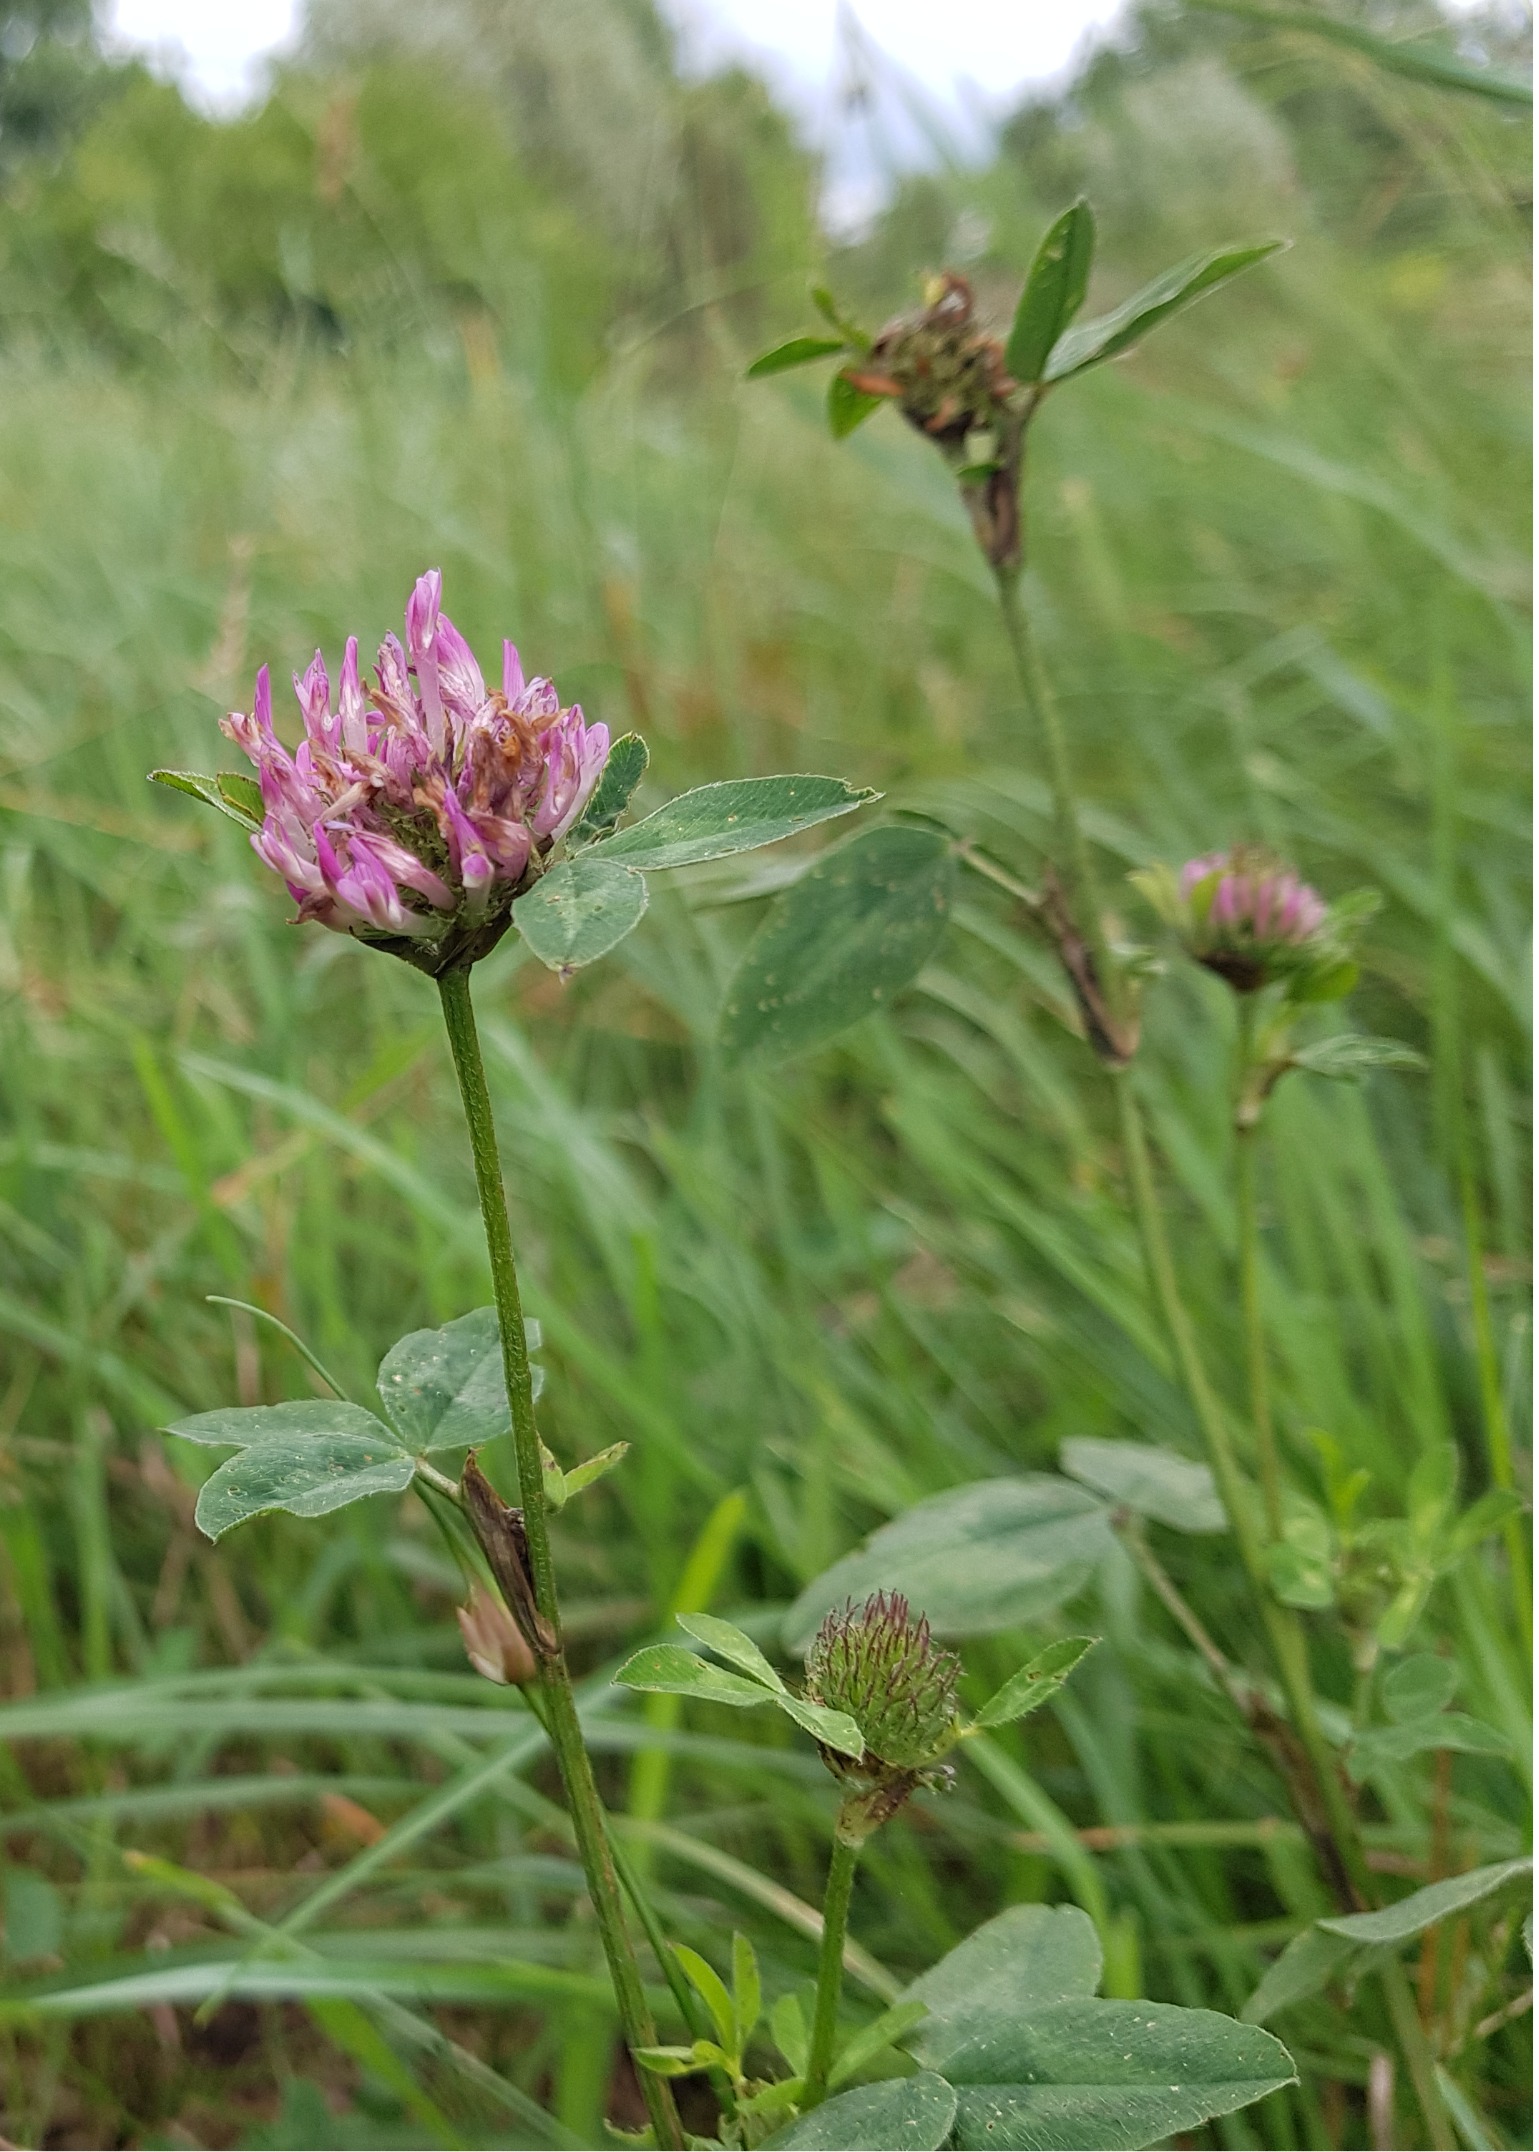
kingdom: Plantae
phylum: Tracheophyta
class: Magnoliopsida
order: Fabales
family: Fabaceae
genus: Trifolium
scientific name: Trifolium pratense
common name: Rød-kløver
